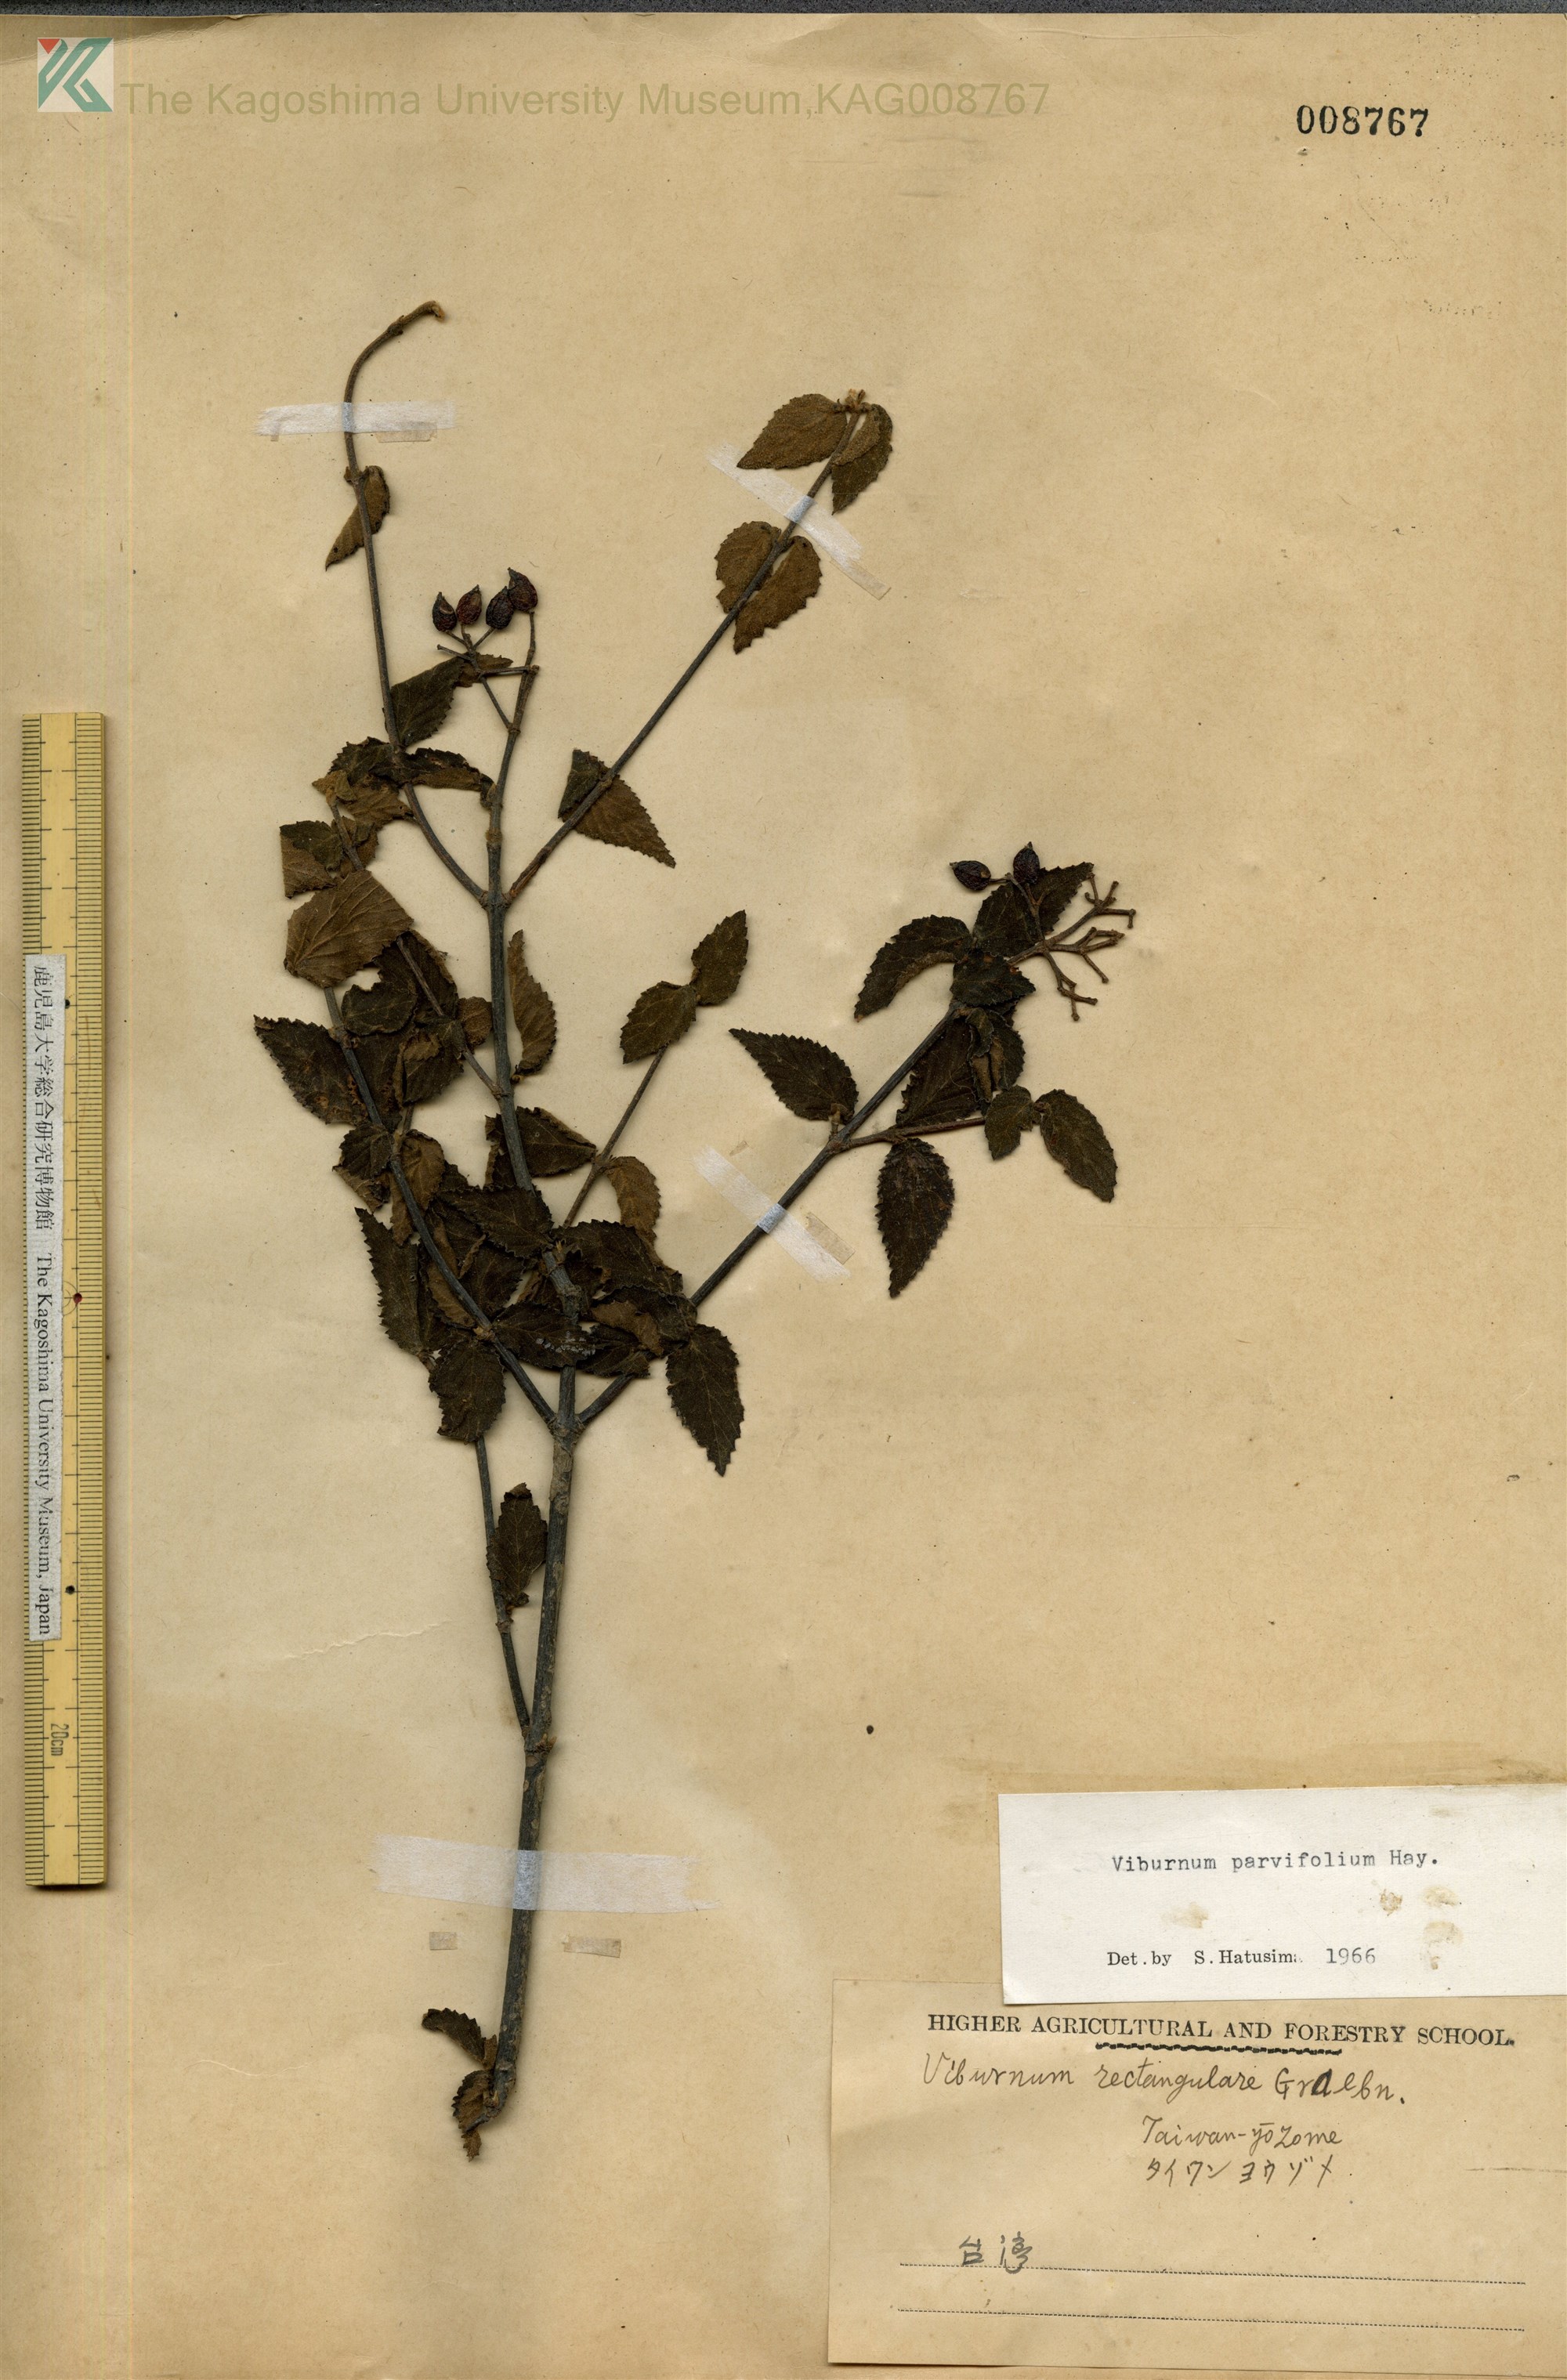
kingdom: Plantae
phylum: Tracheophyta
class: Magnoliopsida
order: Dipsacales
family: Viburnaceae
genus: Viburnum
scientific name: Viburnum parvifolium
